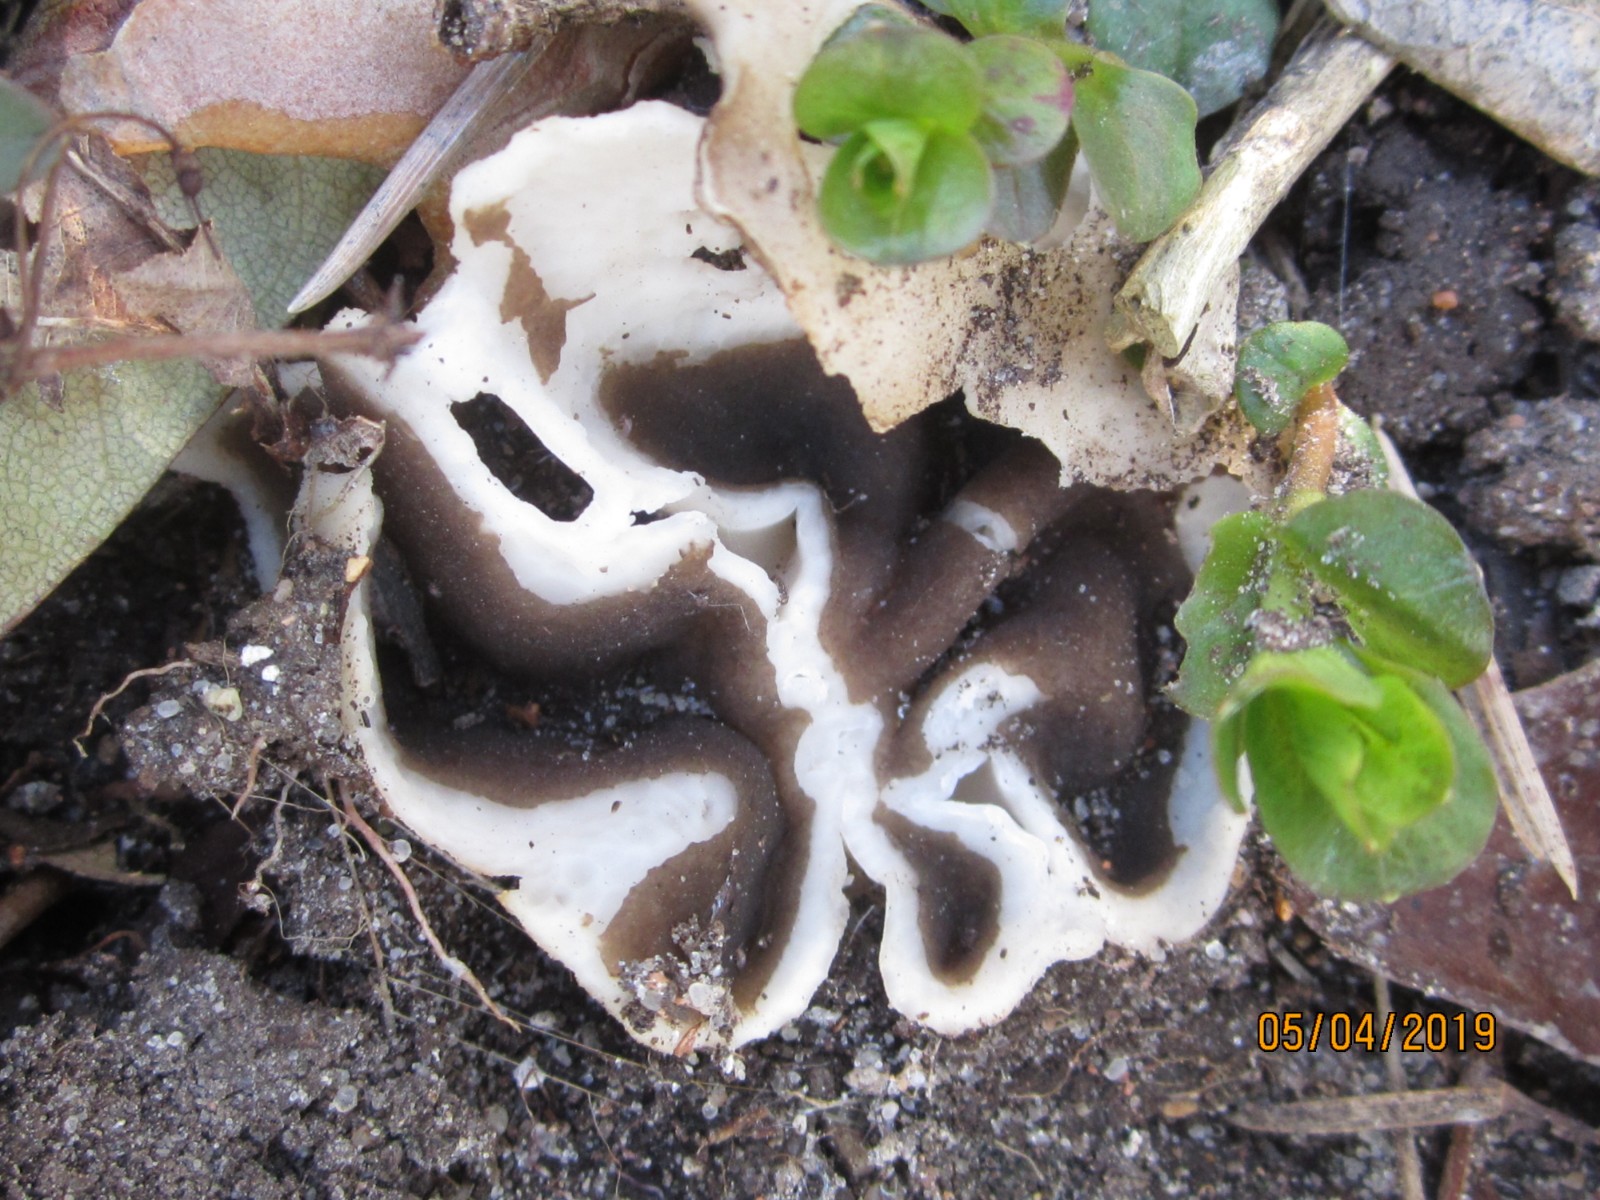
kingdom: Fungi
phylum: Ascomycota
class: Pezizomycetes
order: Pezizales
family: Helvellaceae
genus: Dissingia
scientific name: Dissingia leucomelaena
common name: sorthvid foldhat
